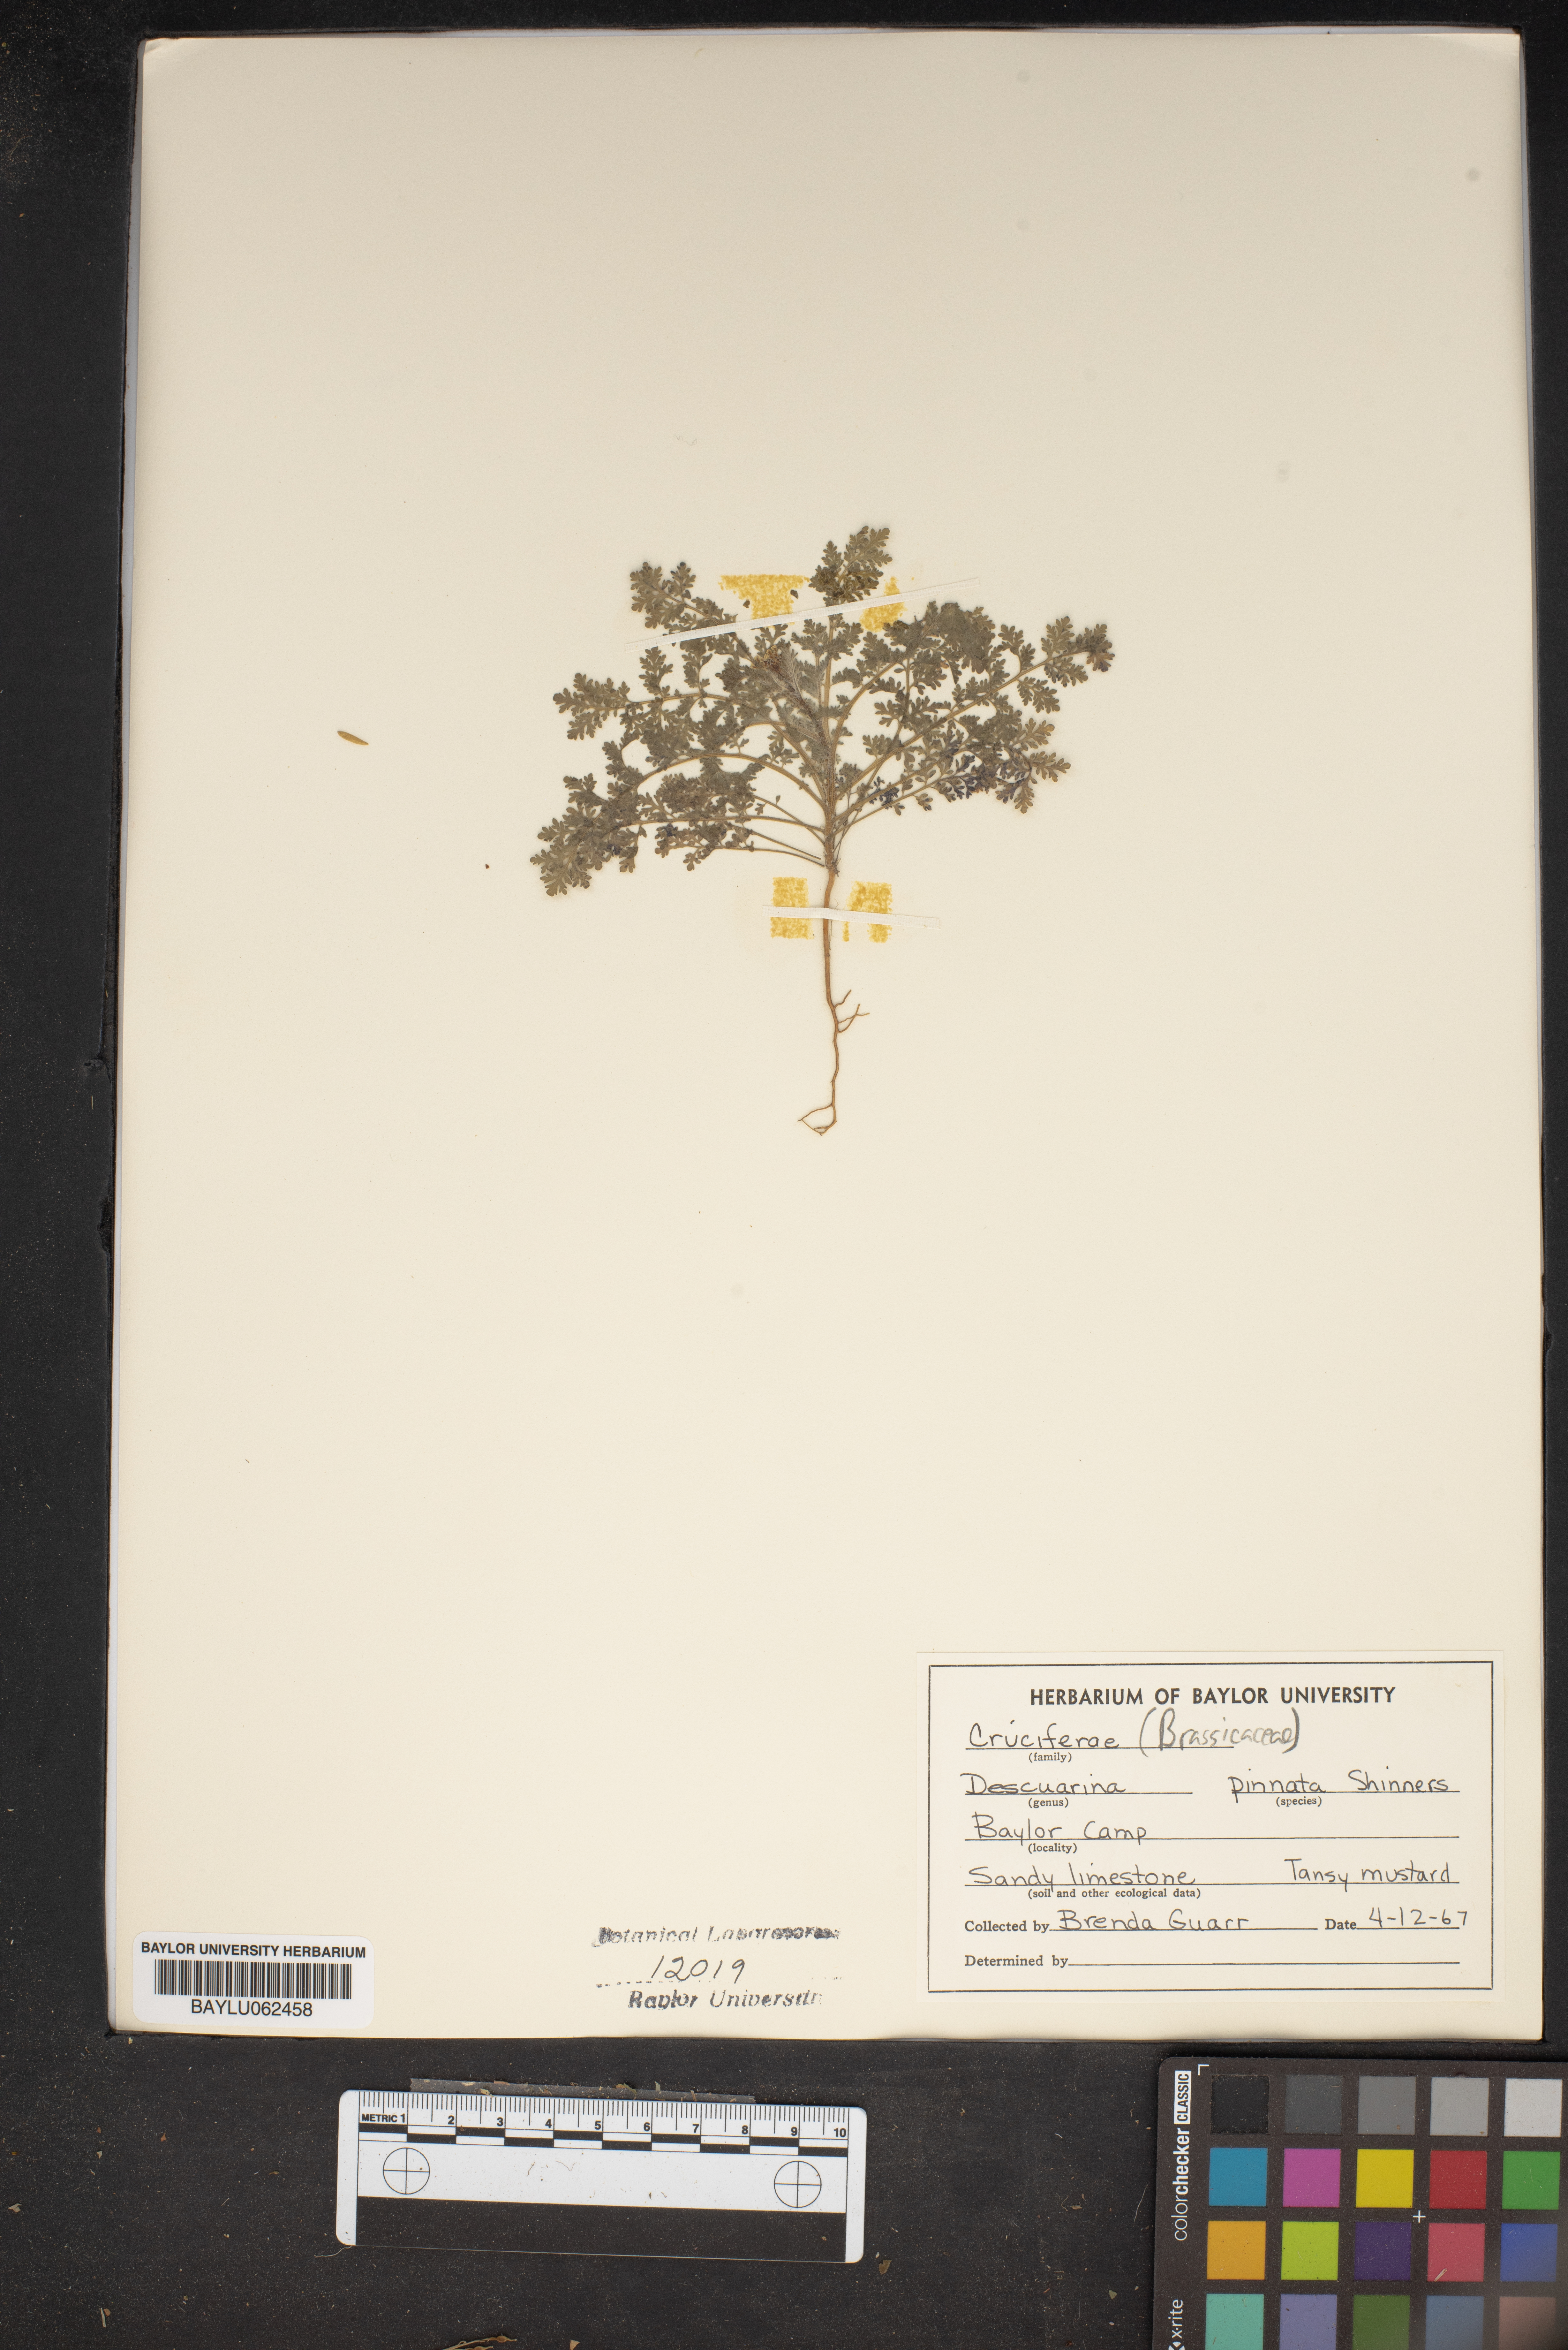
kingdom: Plantae
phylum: Tracheophyta
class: Magnoliopsida
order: Brassicales
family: Brassicaceae
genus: Descurainia
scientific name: Descurainia pinnata
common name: Western tansy mustard
